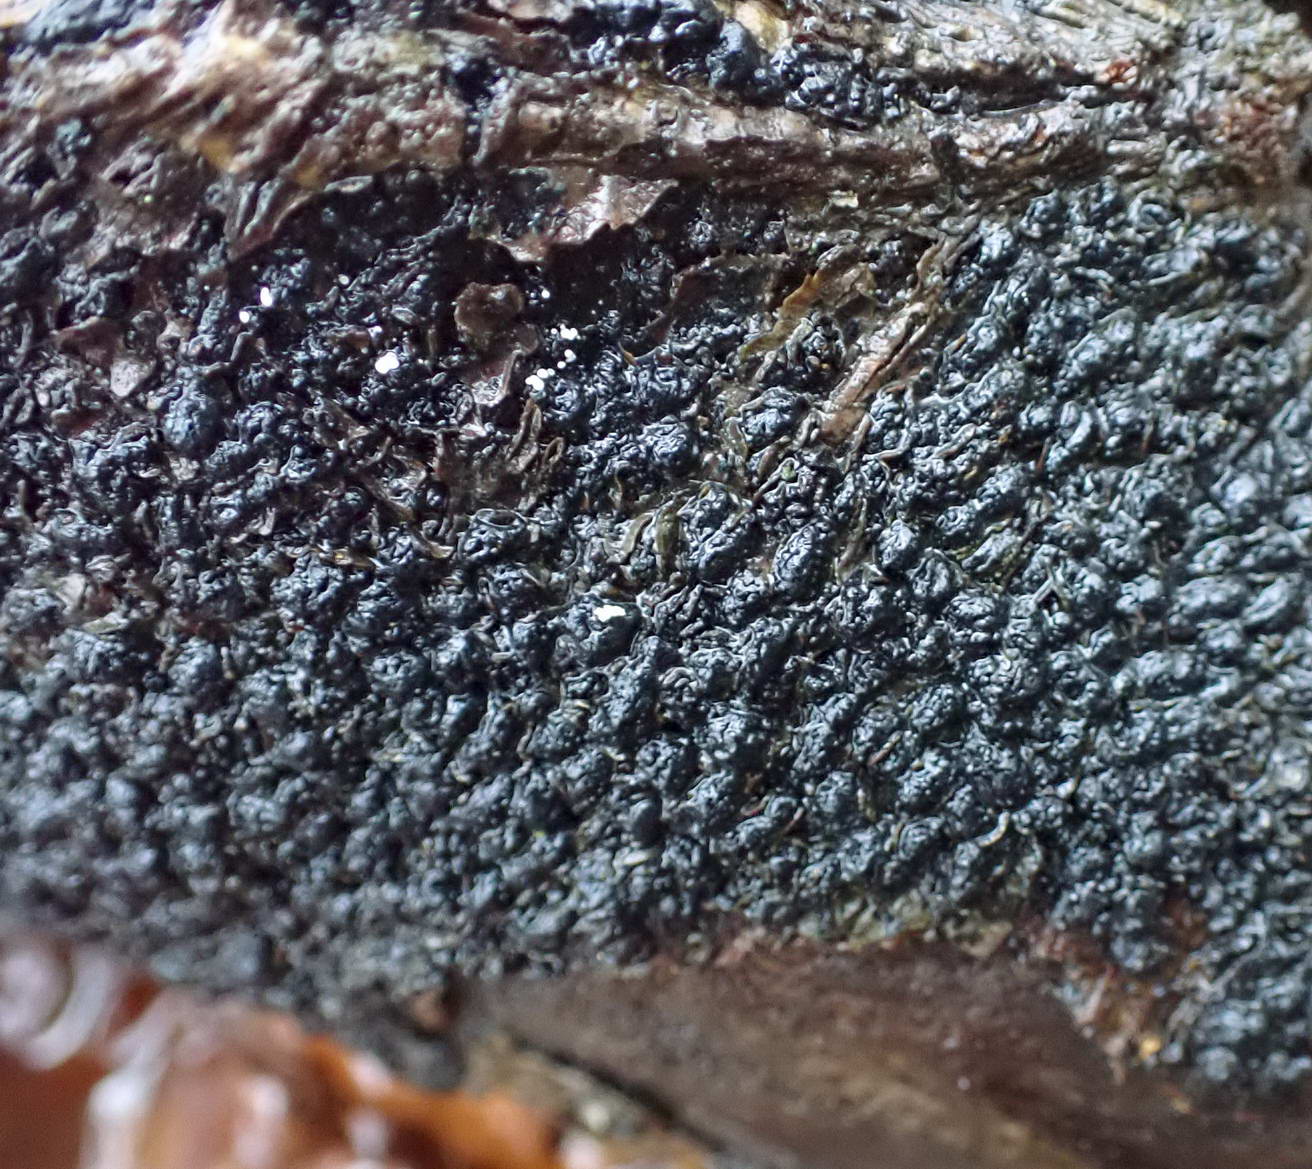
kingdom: Fungi
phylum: Ascomycota
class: Sordariomycetes
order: Xylariales
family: Melogrammataceae
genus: Melogramma
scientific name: Melogramma spiniferum
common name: bøgefod-kulhals
